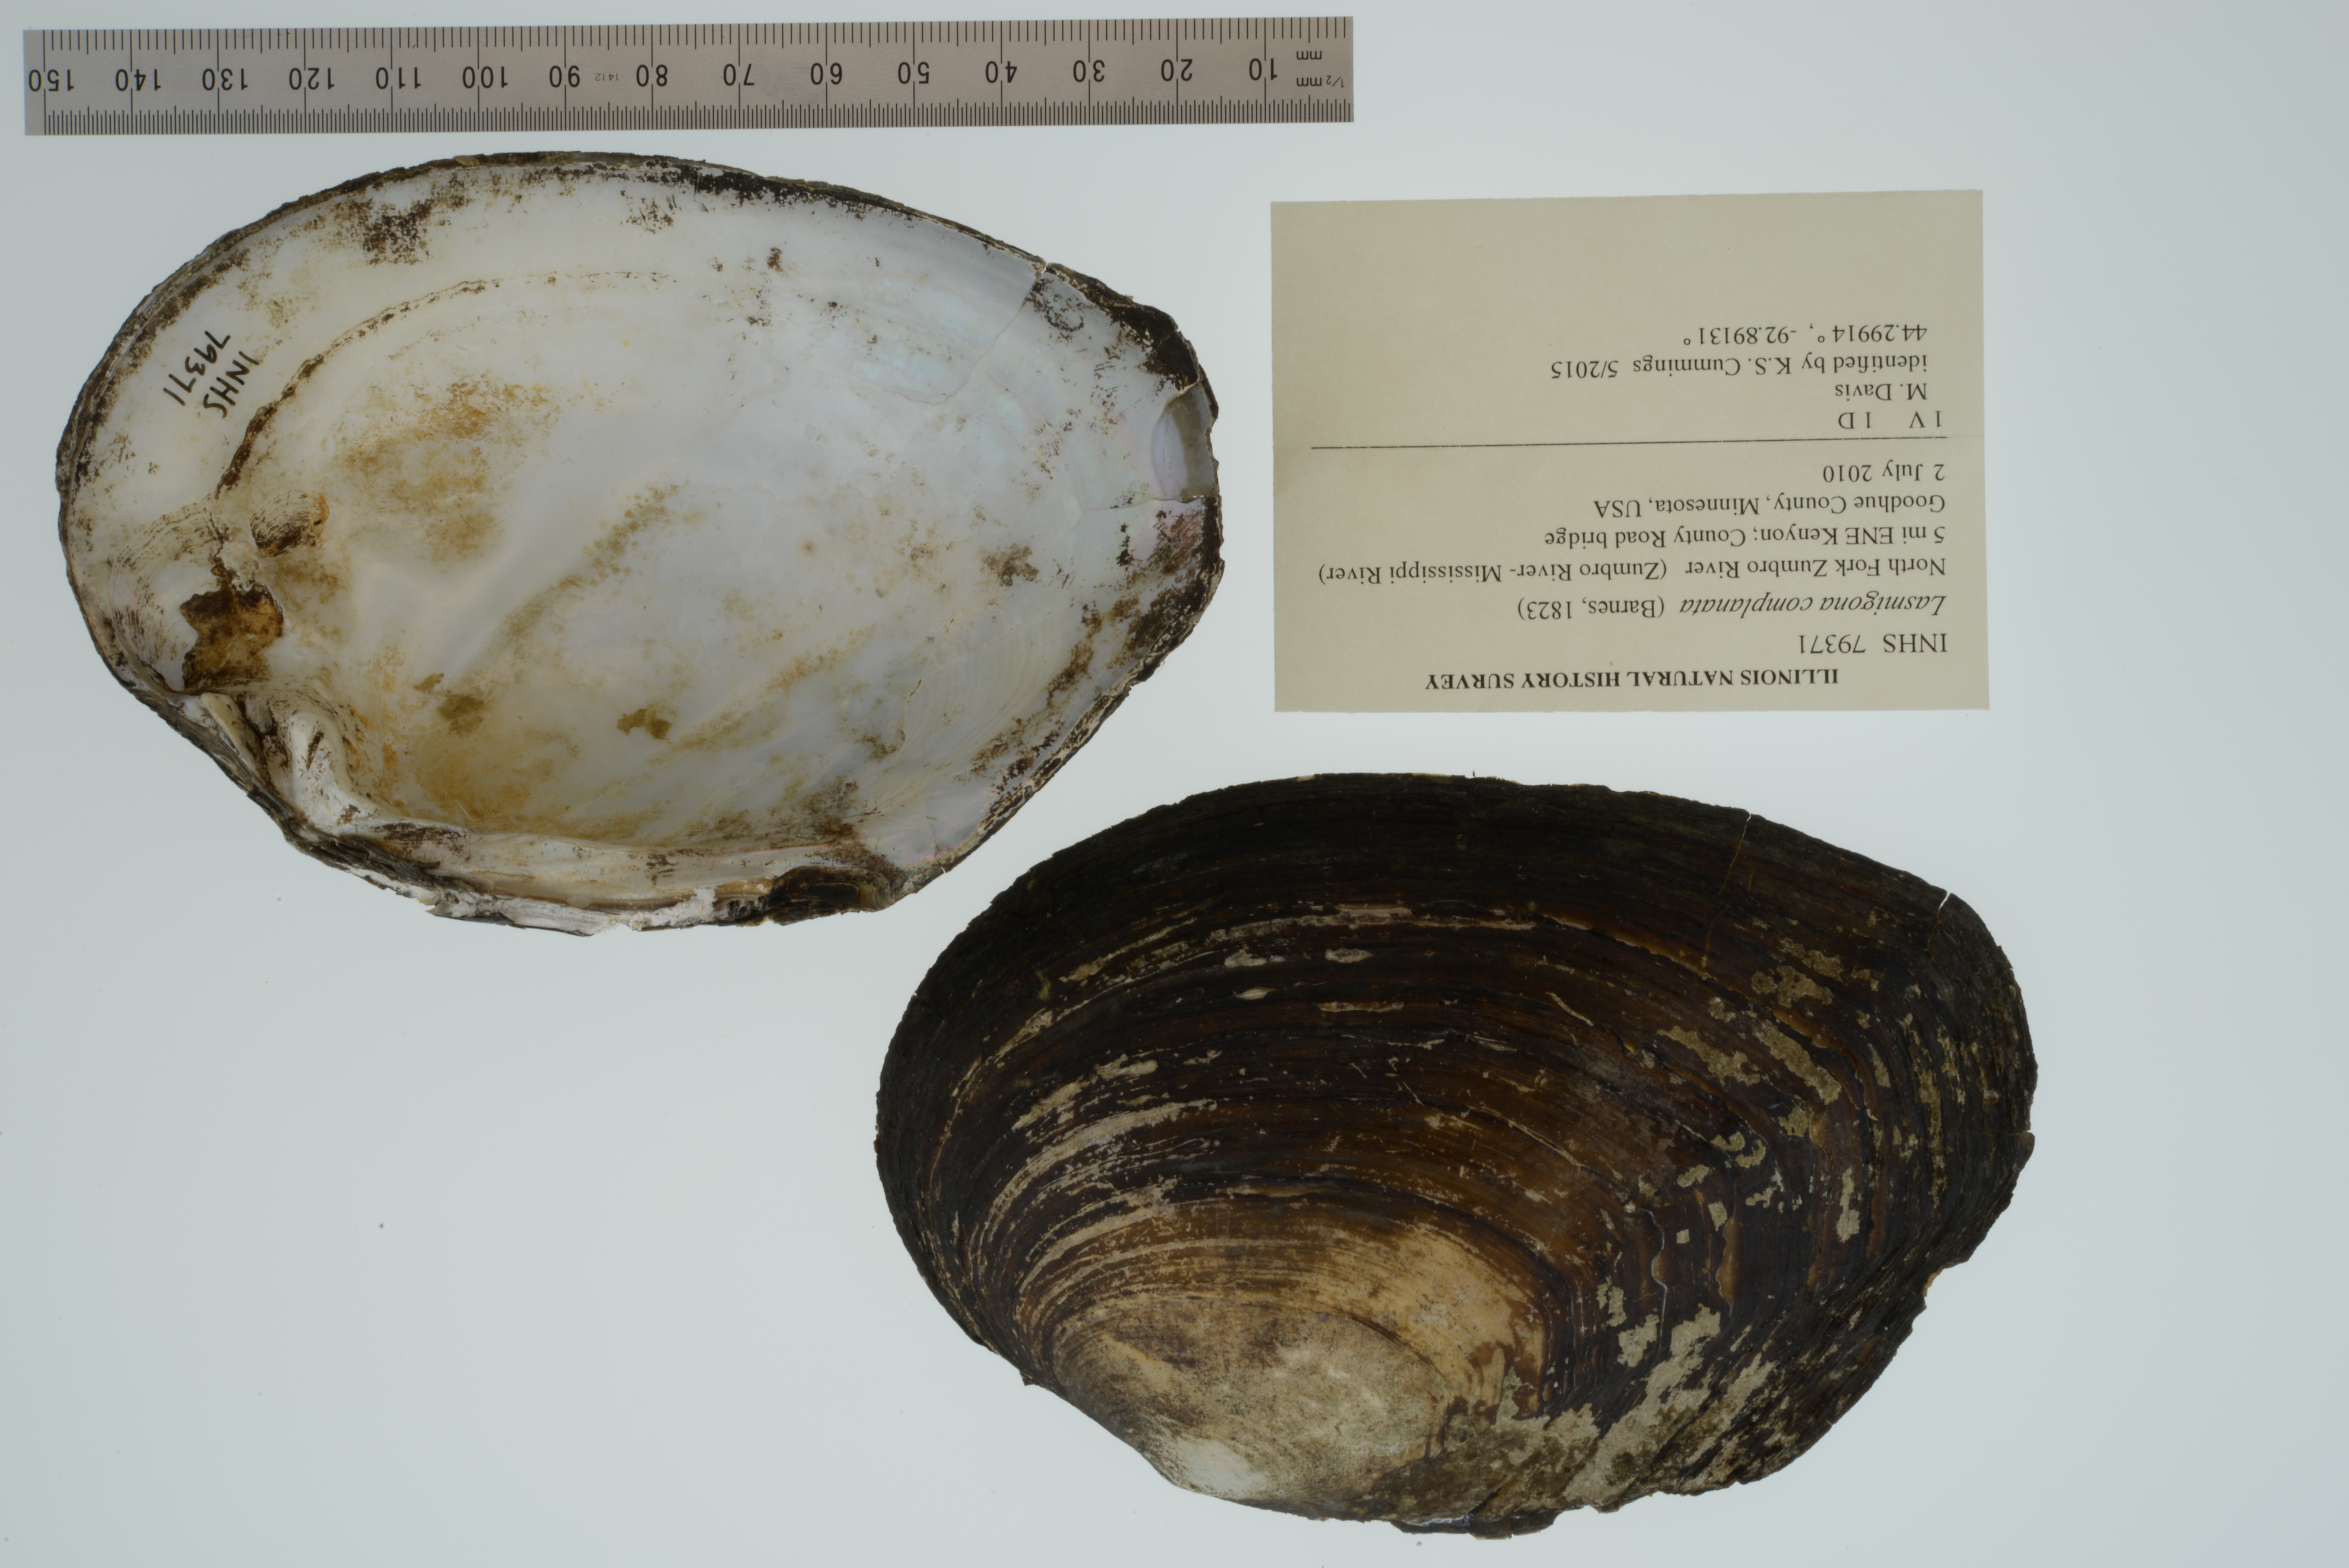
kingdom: Animalia
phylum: Mollusca
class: Bivalvia
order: Unionida
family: Unionidae
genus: Lasmigona
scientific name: Lasmigona complanata
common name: White heelsplitter
